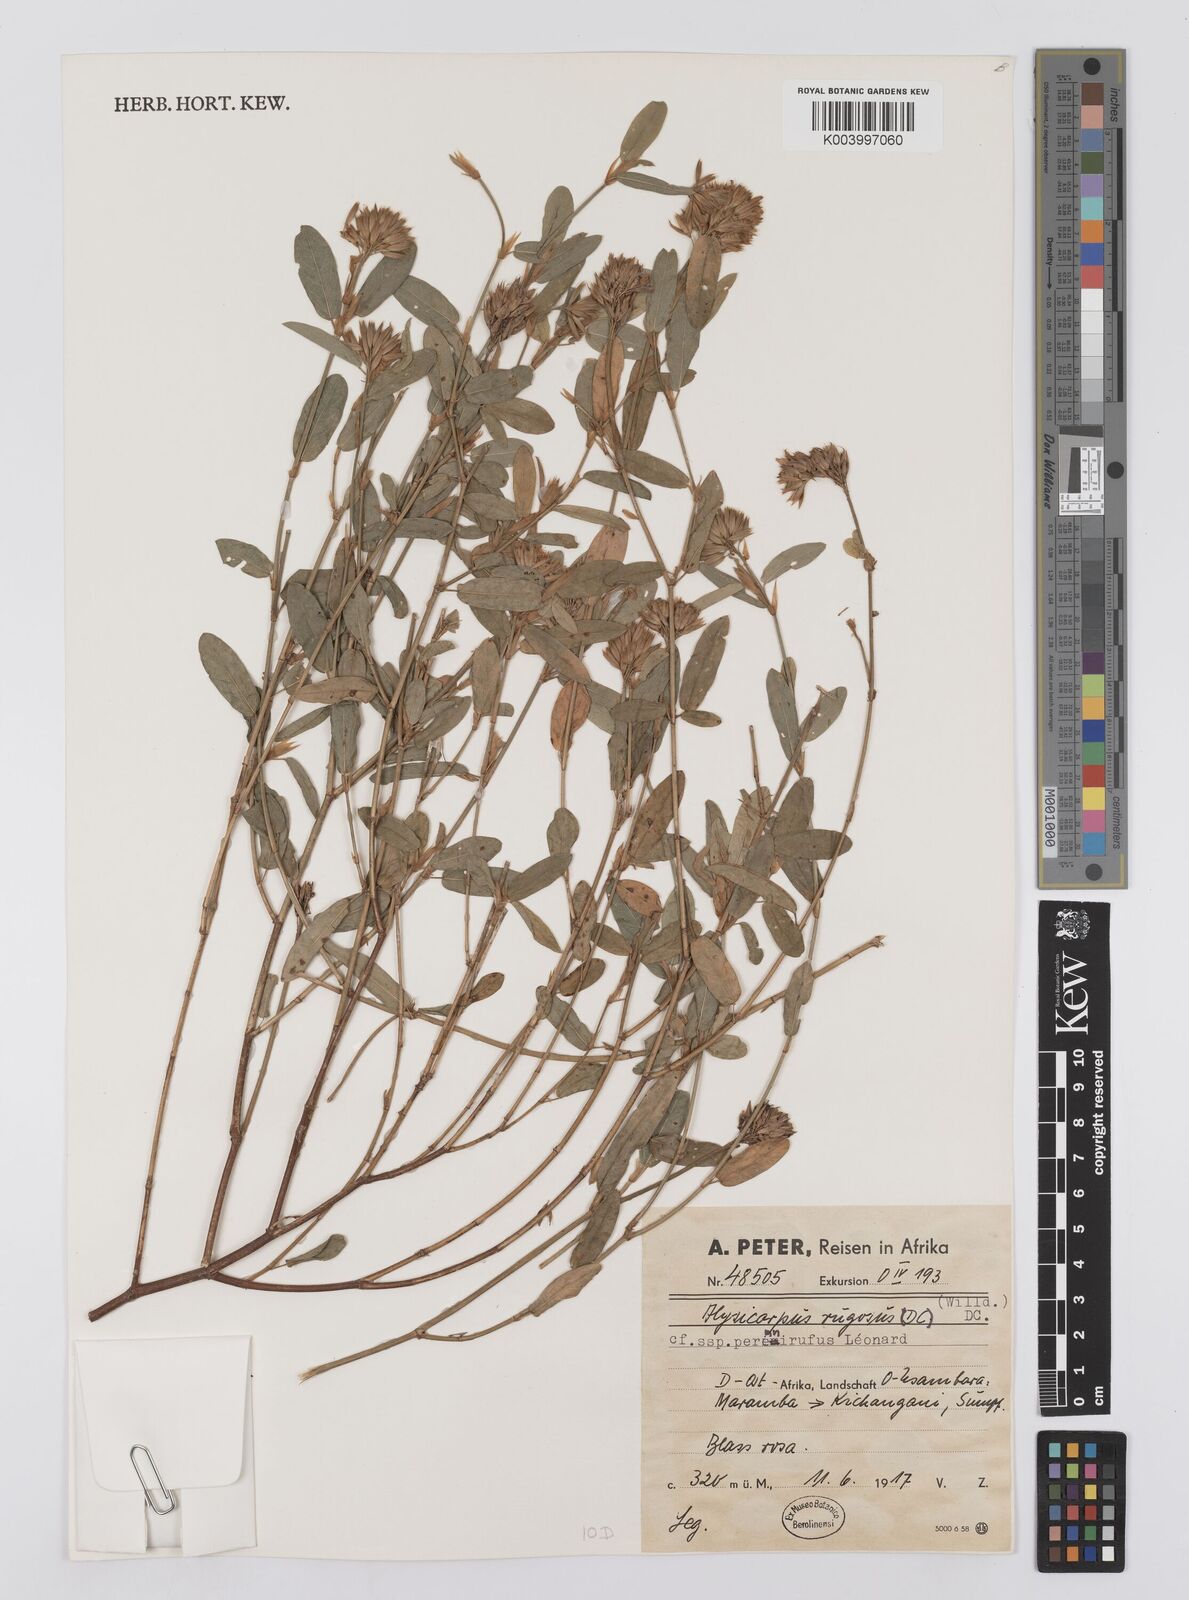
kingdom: Plantae
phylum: Tracheophyta
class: Magnoliopsida
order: Fabales
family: Fabaceae
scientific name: Fabaceae
